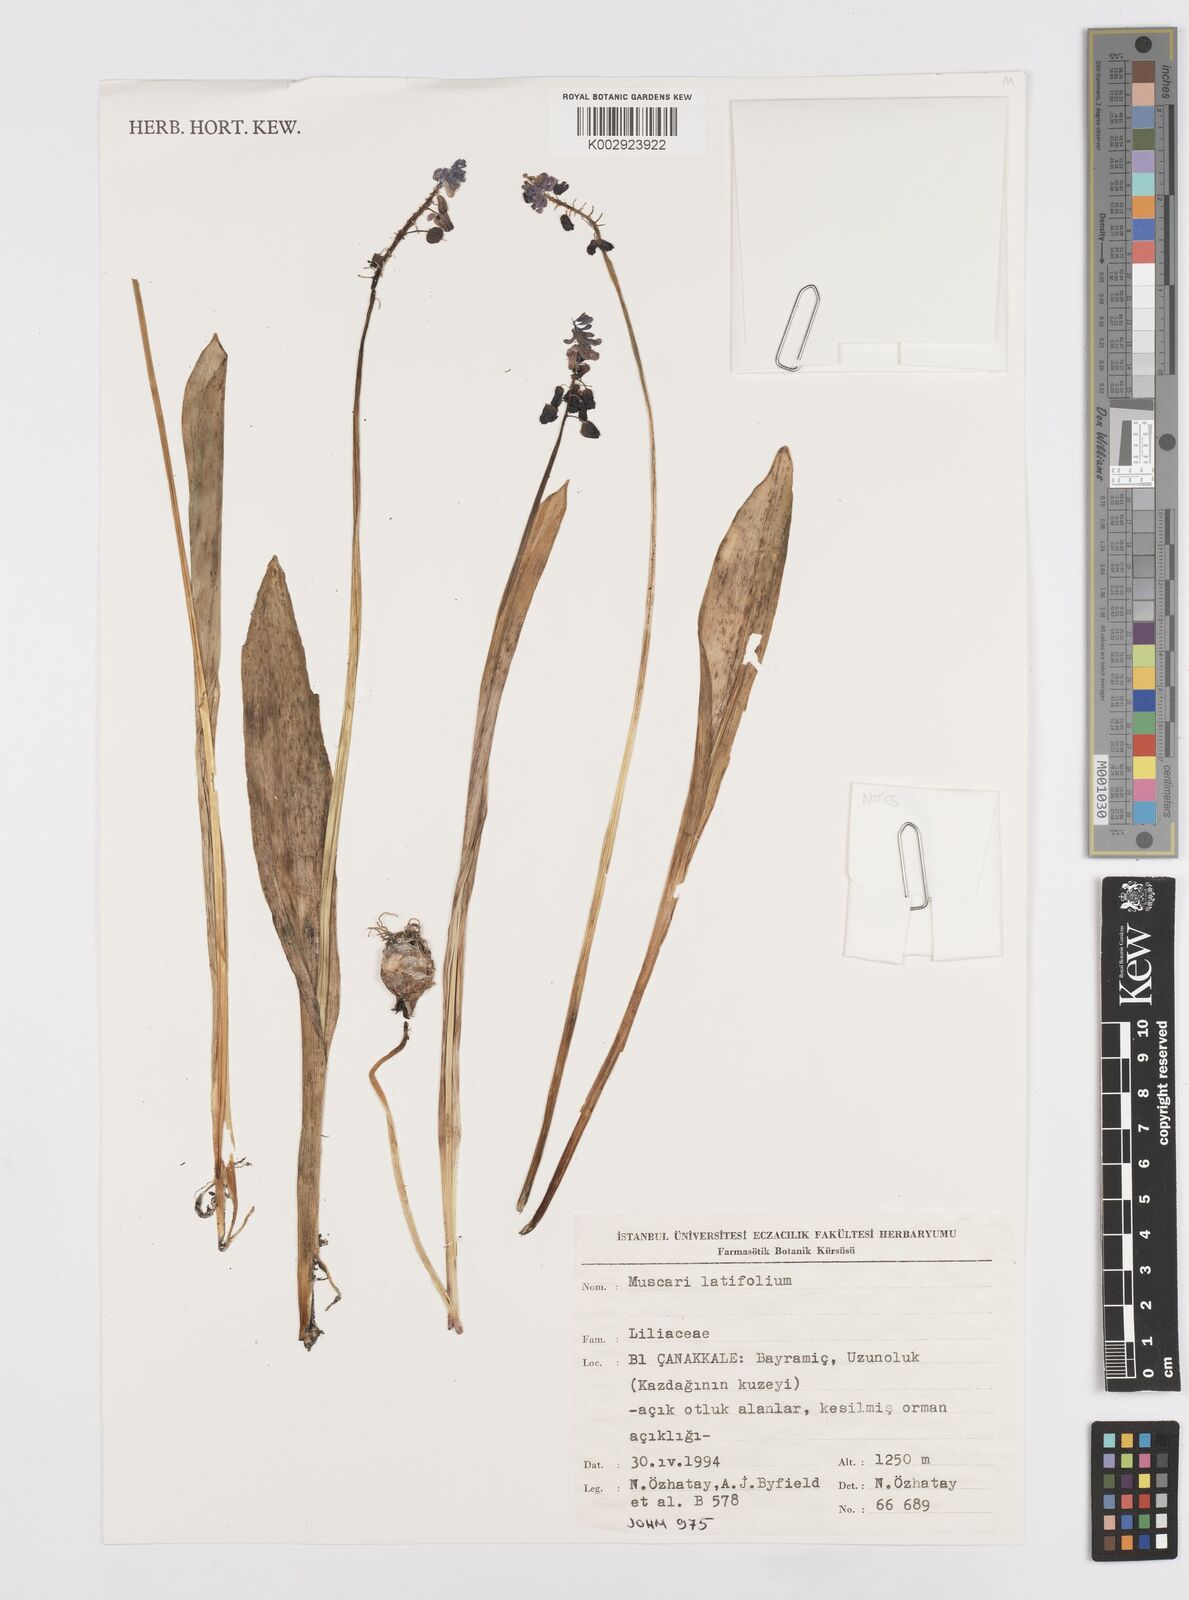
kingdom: Plantae
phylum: Tracheophyta
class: Liliopsida
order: Asparagales
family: Asparagaceae
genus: Muscari
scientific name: Muscari latifolium
